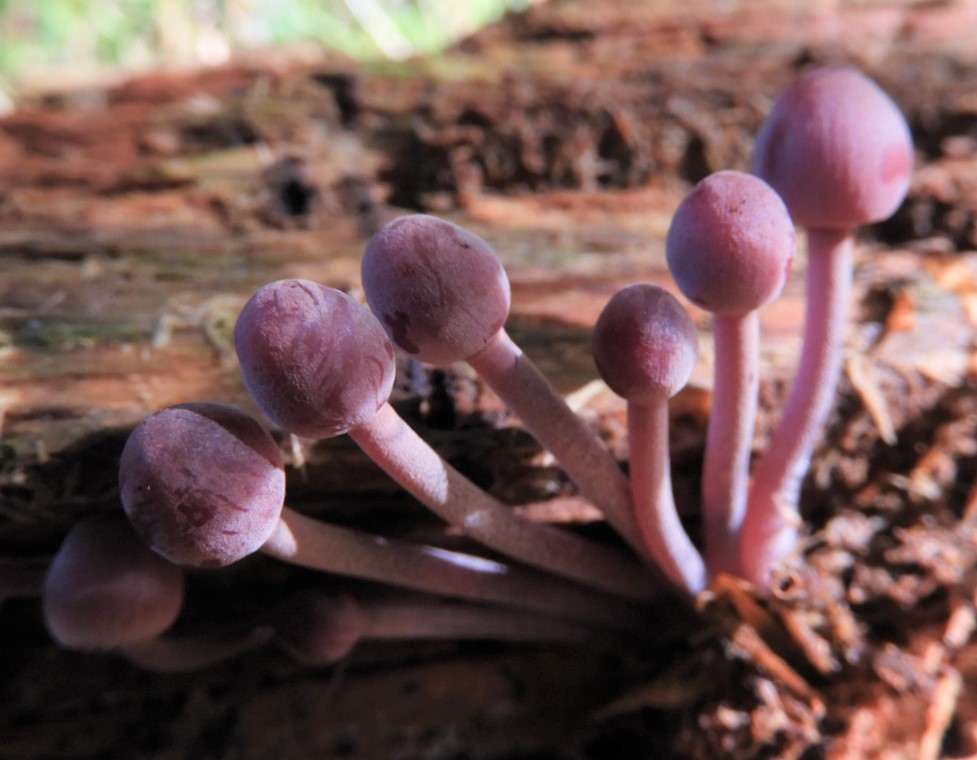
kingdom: Fungi
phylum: Basidiomycota
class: Agaricomycetes
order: Agaricales
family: Mycenaceae
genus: Mycena
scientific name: Mycena haematopus
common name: blødende huesvamp
